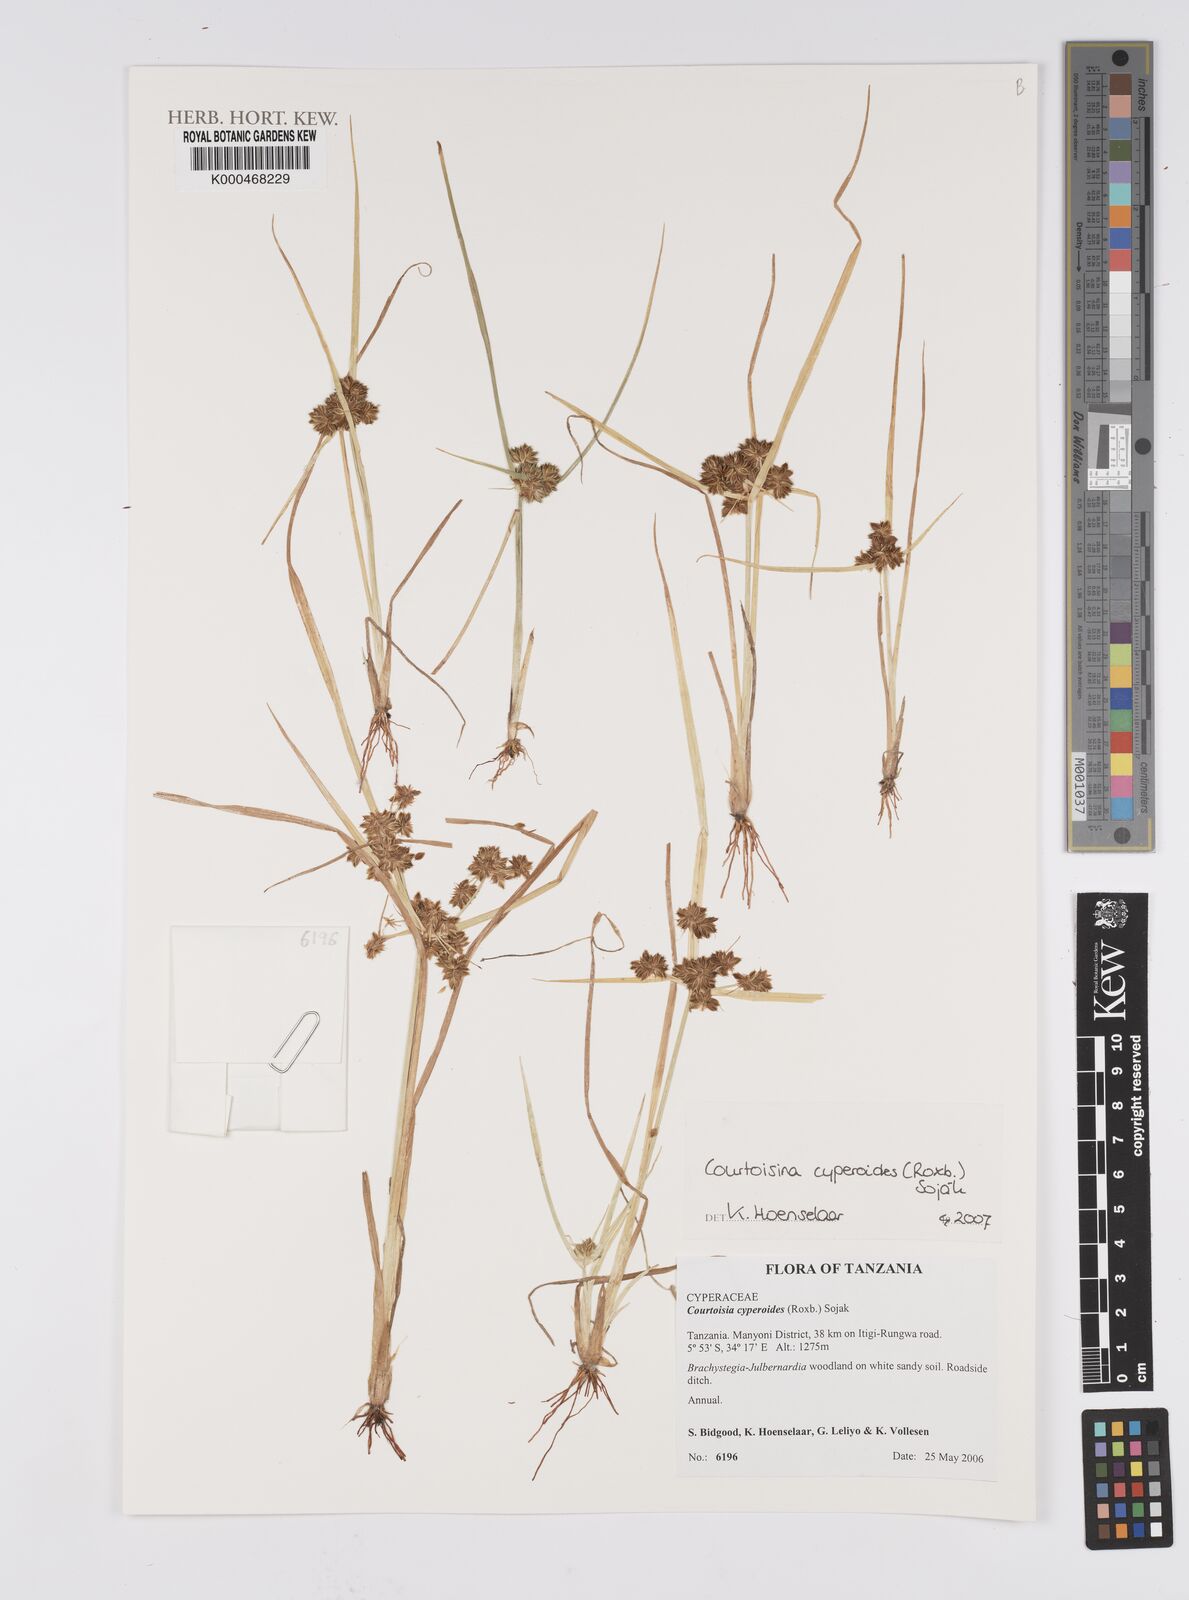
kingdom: Plantae
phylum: Tracheophyta
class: Liliopsida
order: Poales
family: Cyperaceae
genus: Cyperus
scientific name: Cyperus
